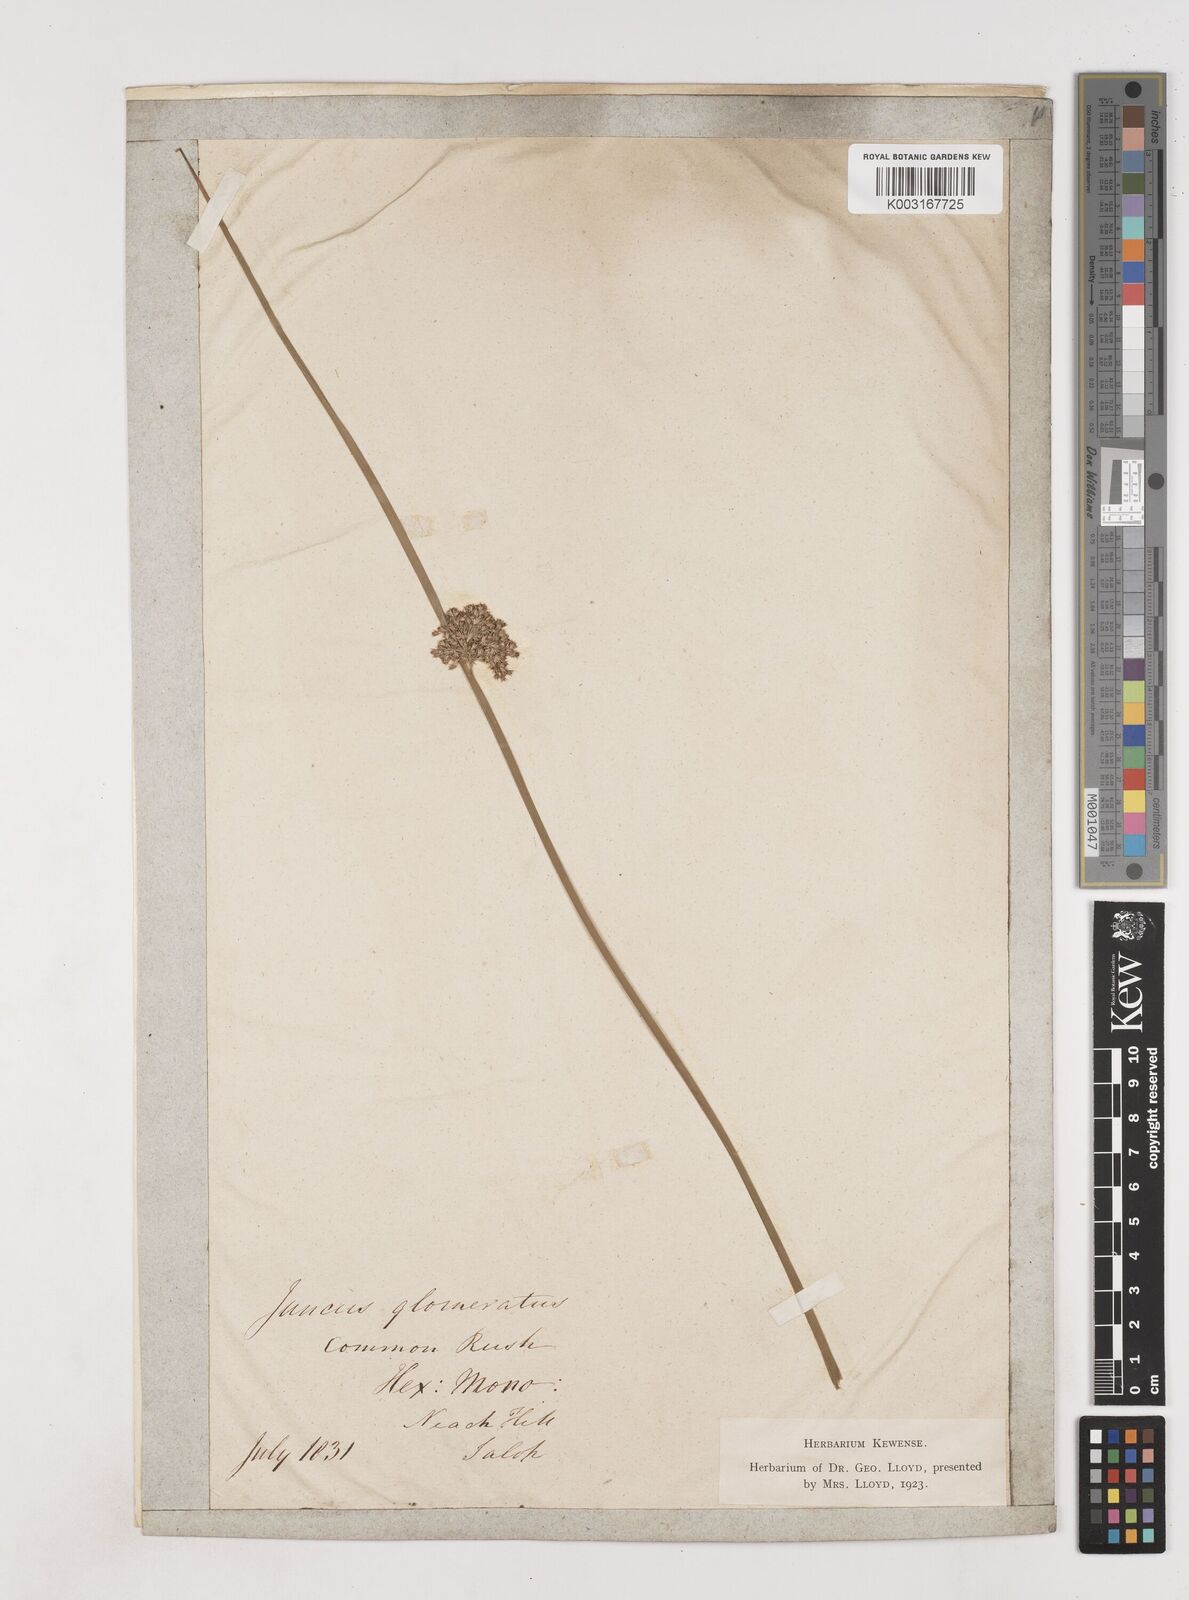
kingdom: Plantae
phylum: Tracheophyta
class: Liliopsida
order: Poales
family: Juncaceae
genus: Juncus
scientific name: Juncus effusus
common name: Soft rush
